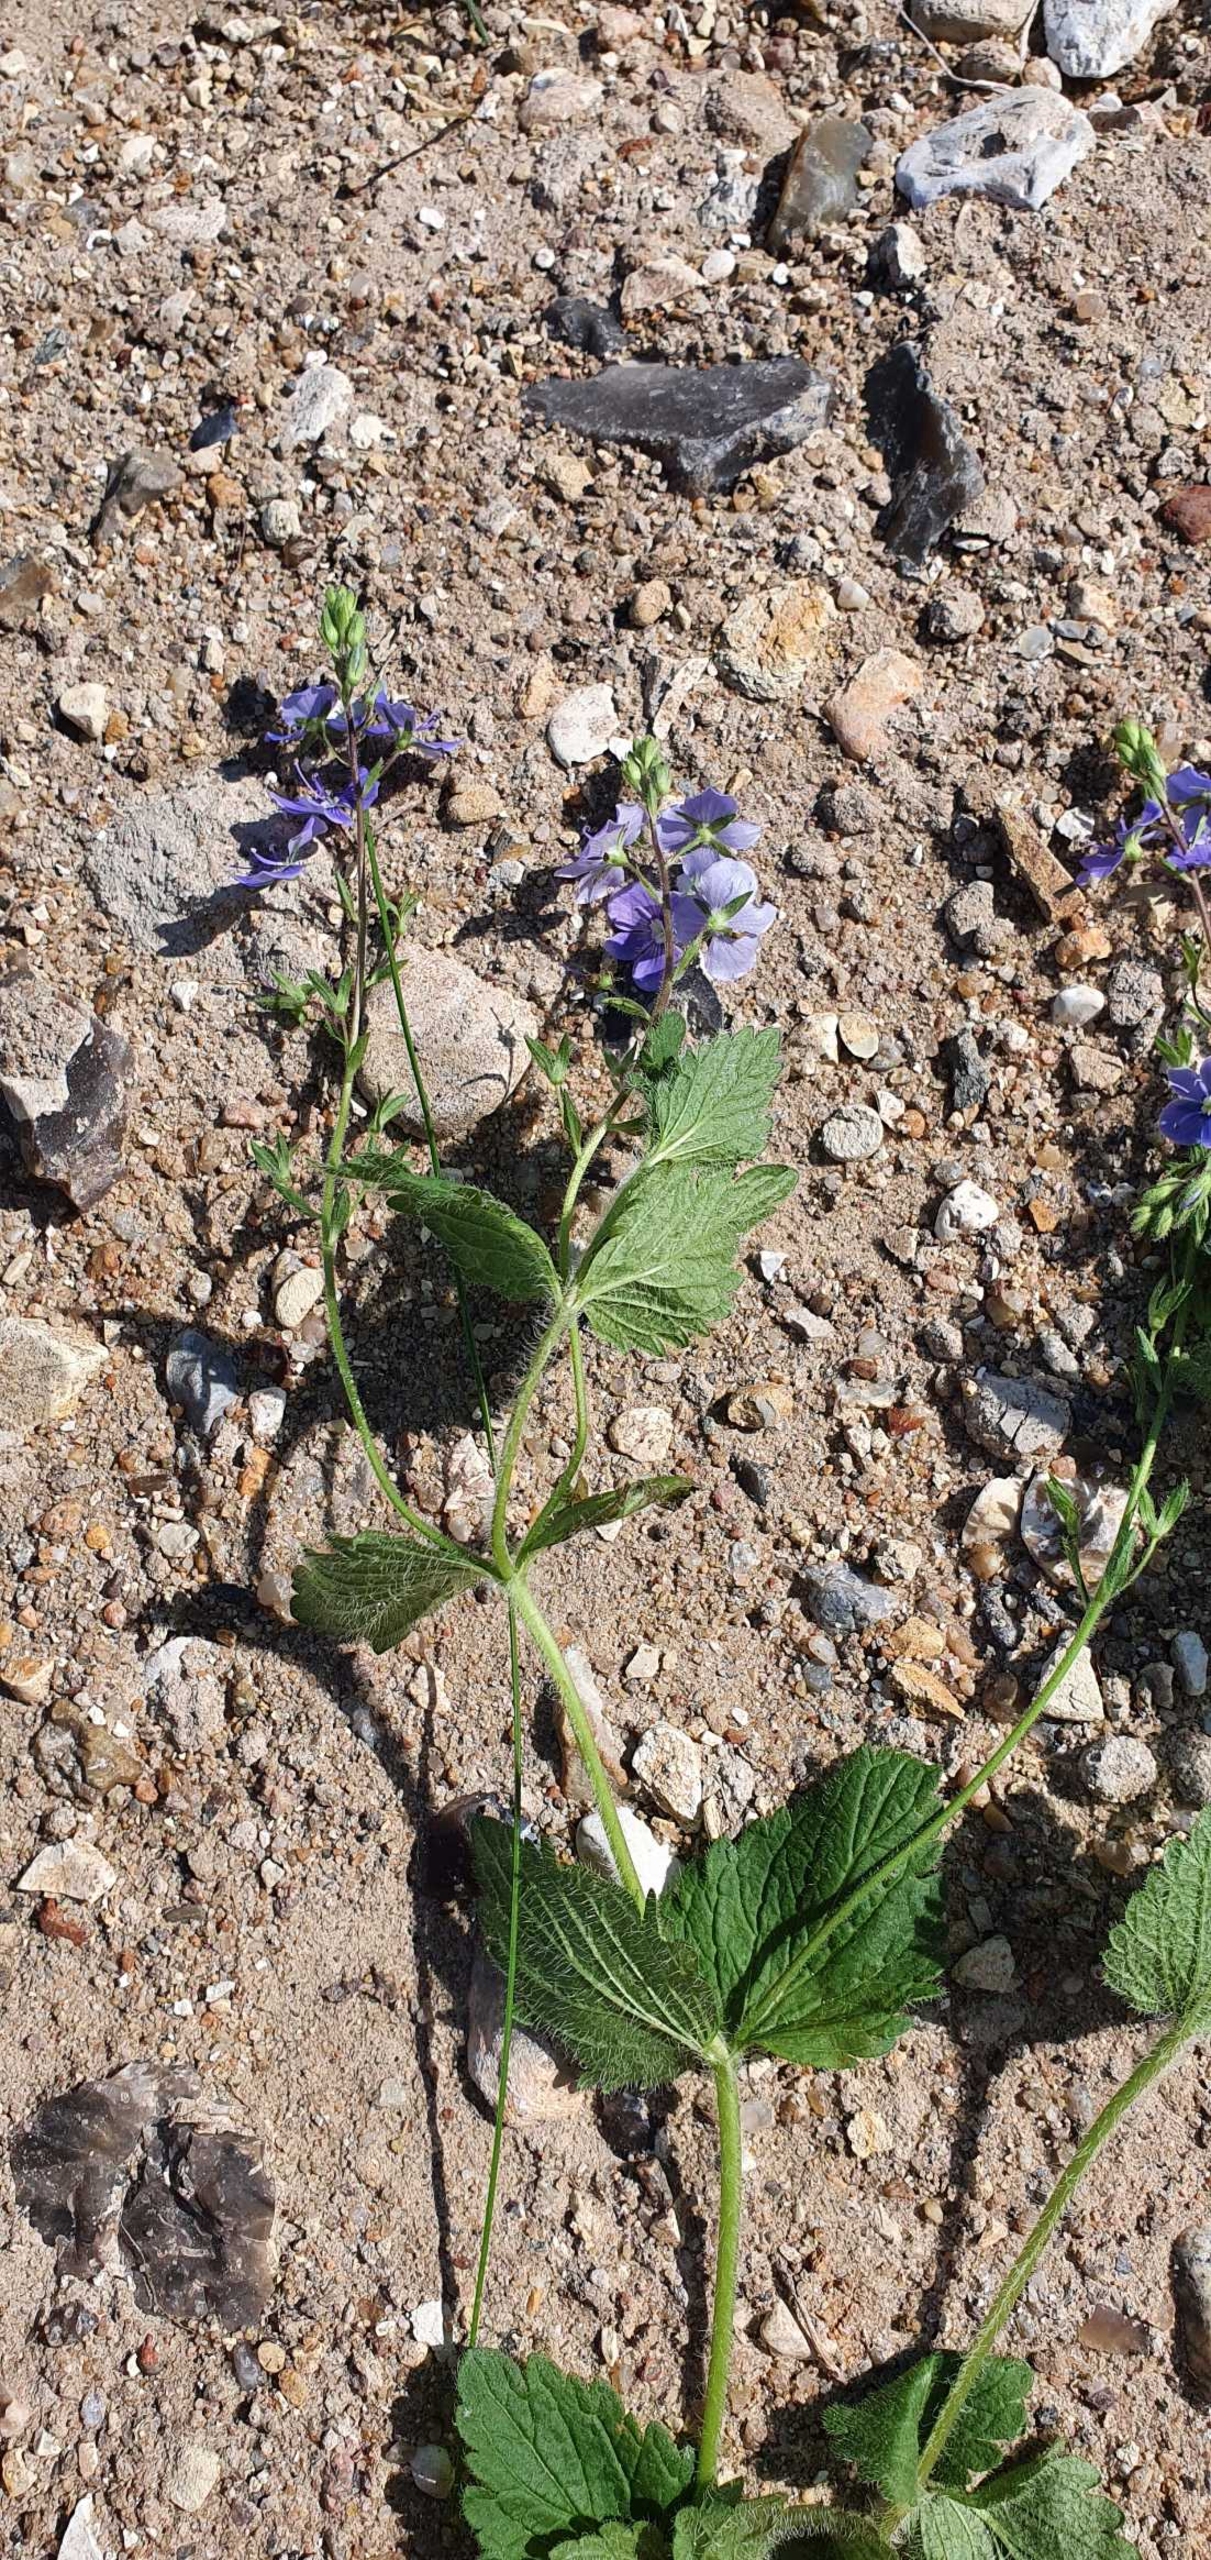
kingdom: Plantae
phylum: Tracheophyta
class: Magnoliopsida
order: Lamiales
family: Plantaginaceae
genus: Veronica
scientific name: Veronica chamaedrys
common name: Tveskægget ærenpris
